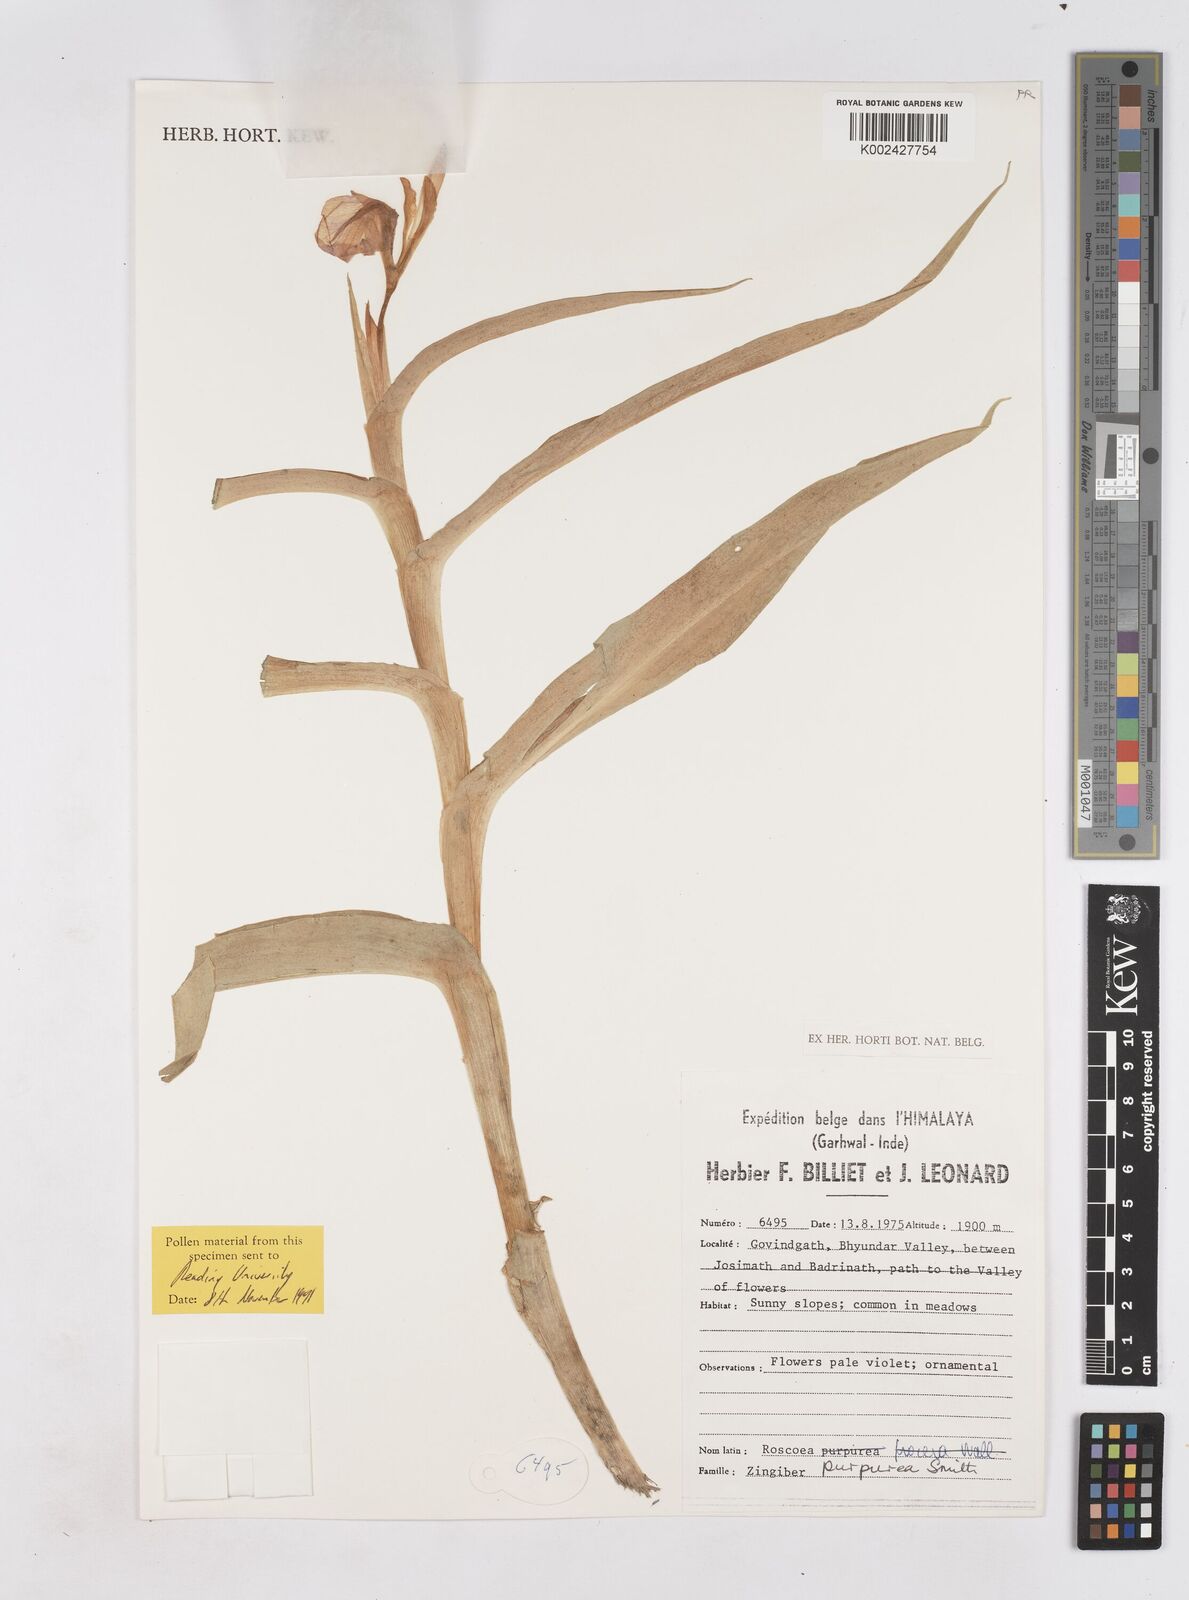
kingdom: Plantae
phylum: Tracheophyta
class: Liliopsida
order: Zingiberales
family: Zingiberaceae
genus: Roscoea
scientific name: Roscoea purpurea
